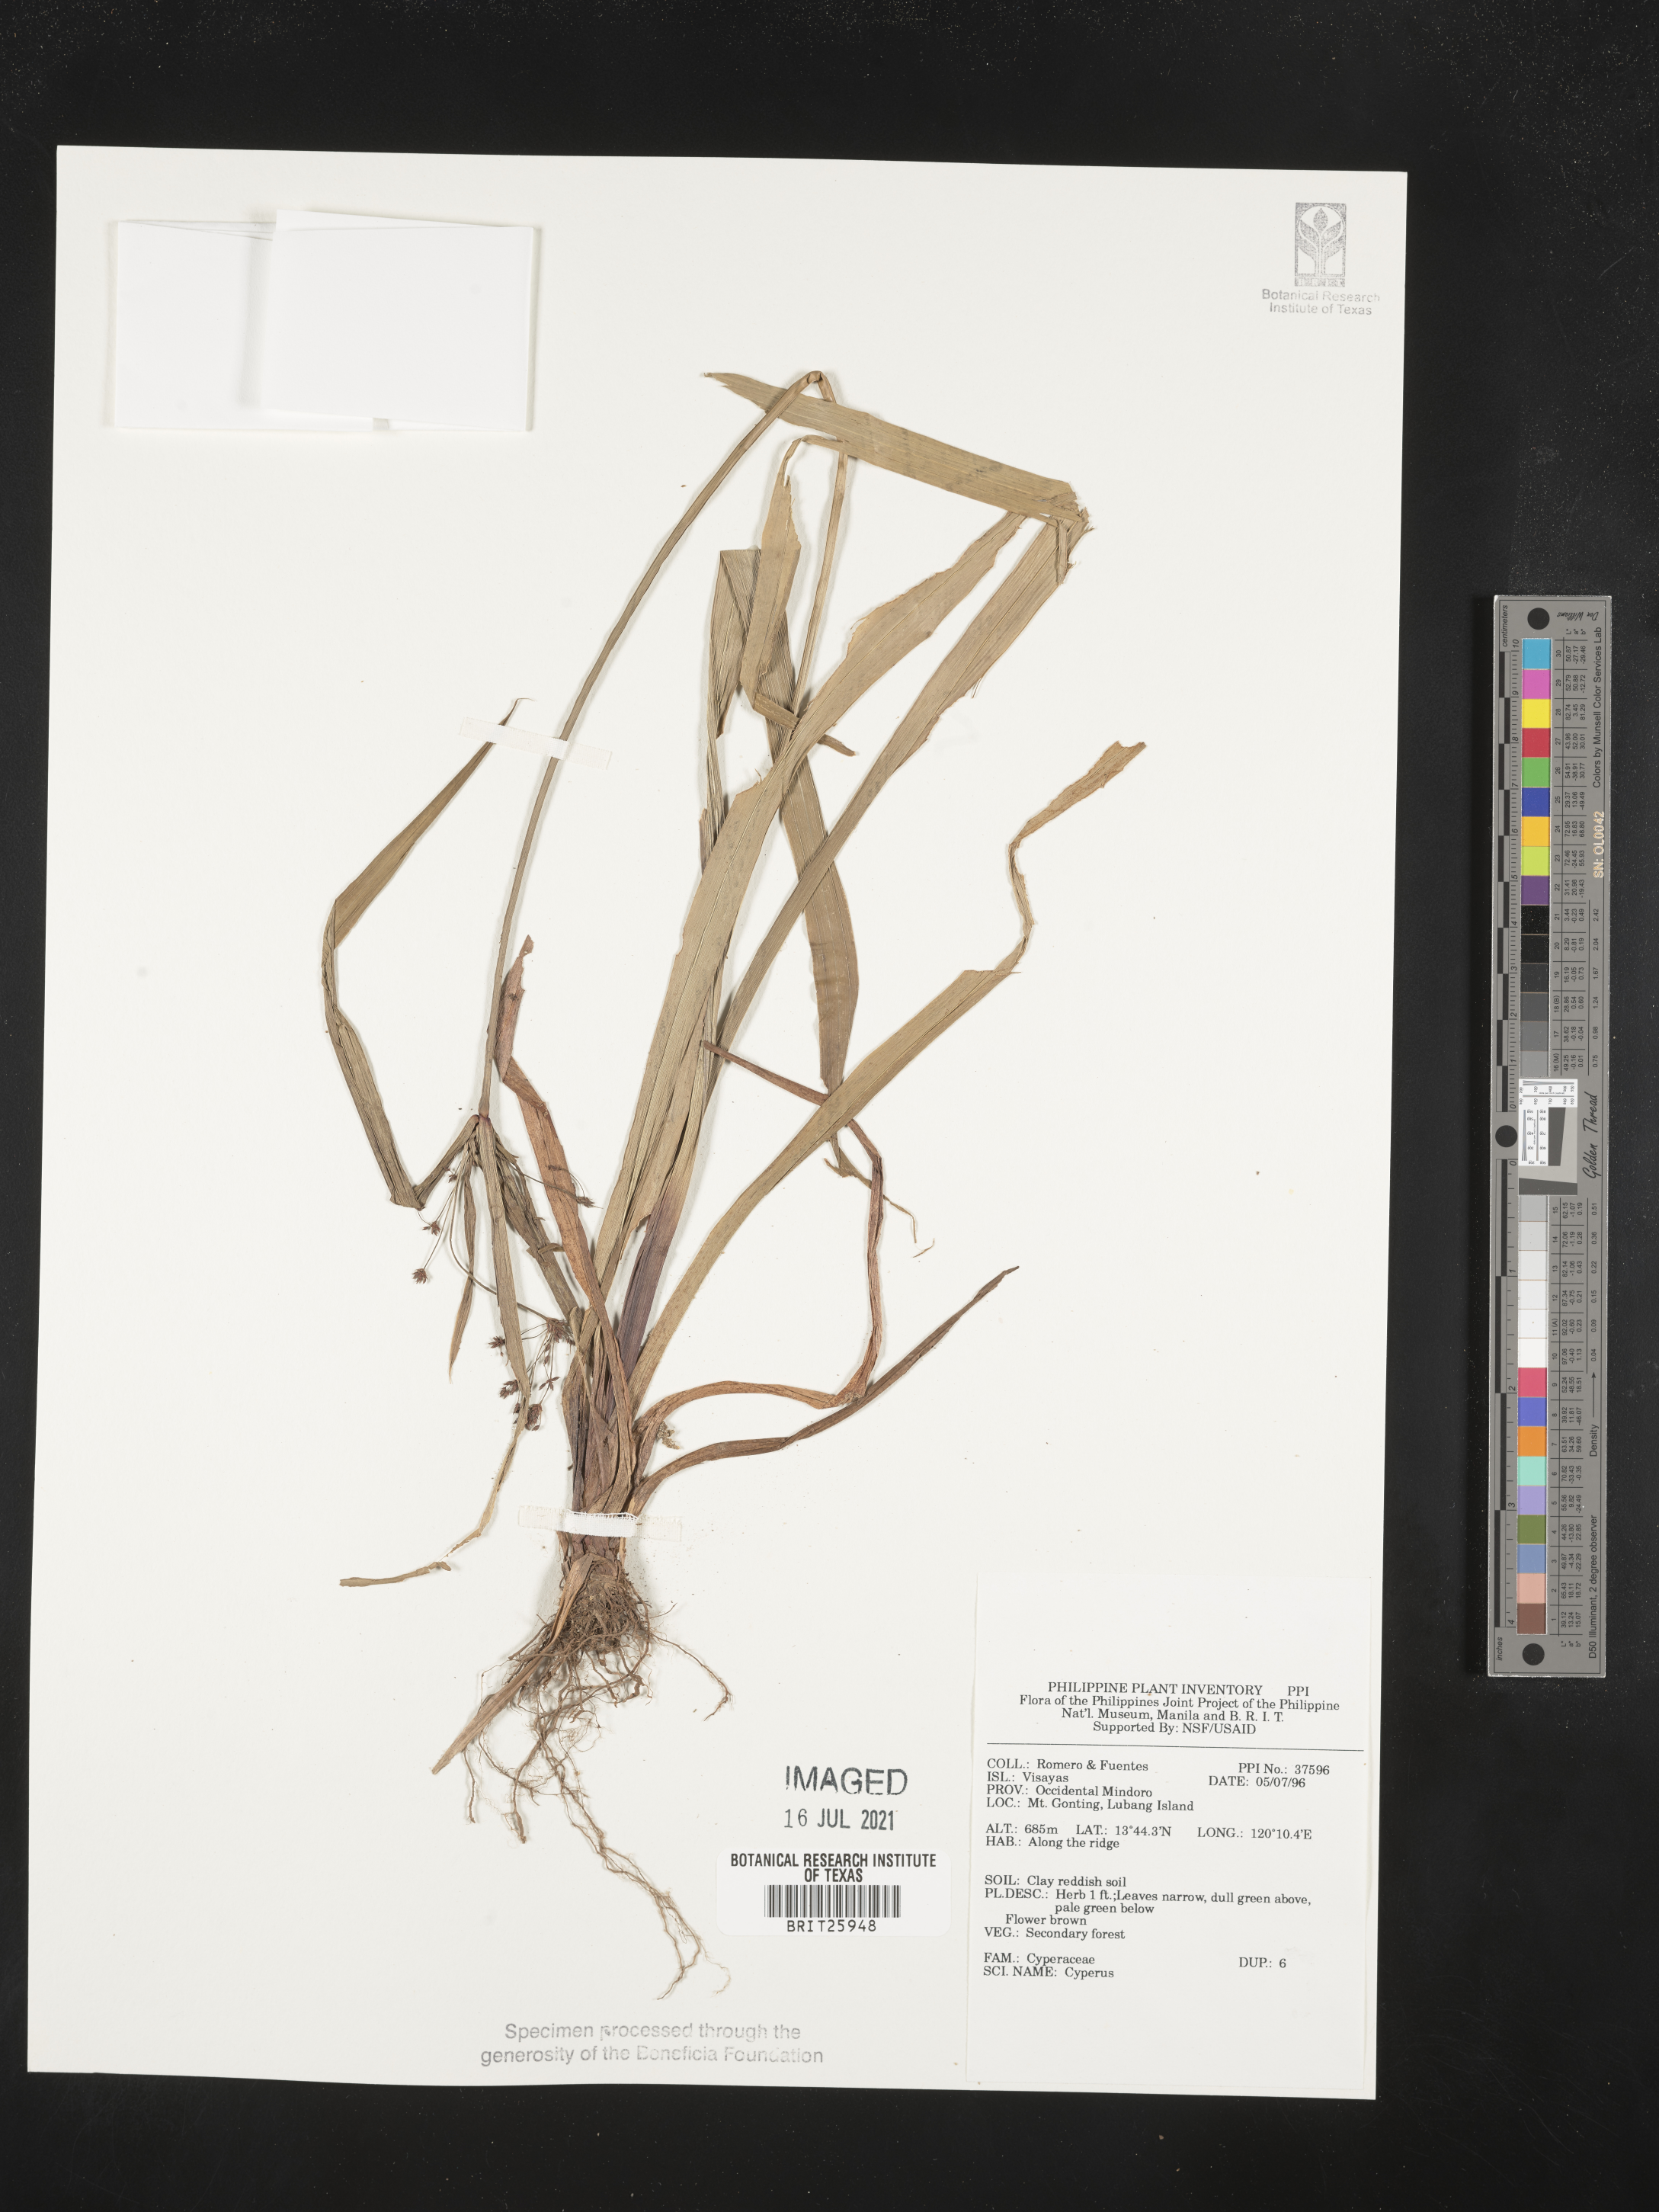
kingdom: Plantae
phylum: Tracheophyta
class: Liliopsida
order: Poales
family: Cyperaceae
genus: Cyperus
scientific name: Cyperus
